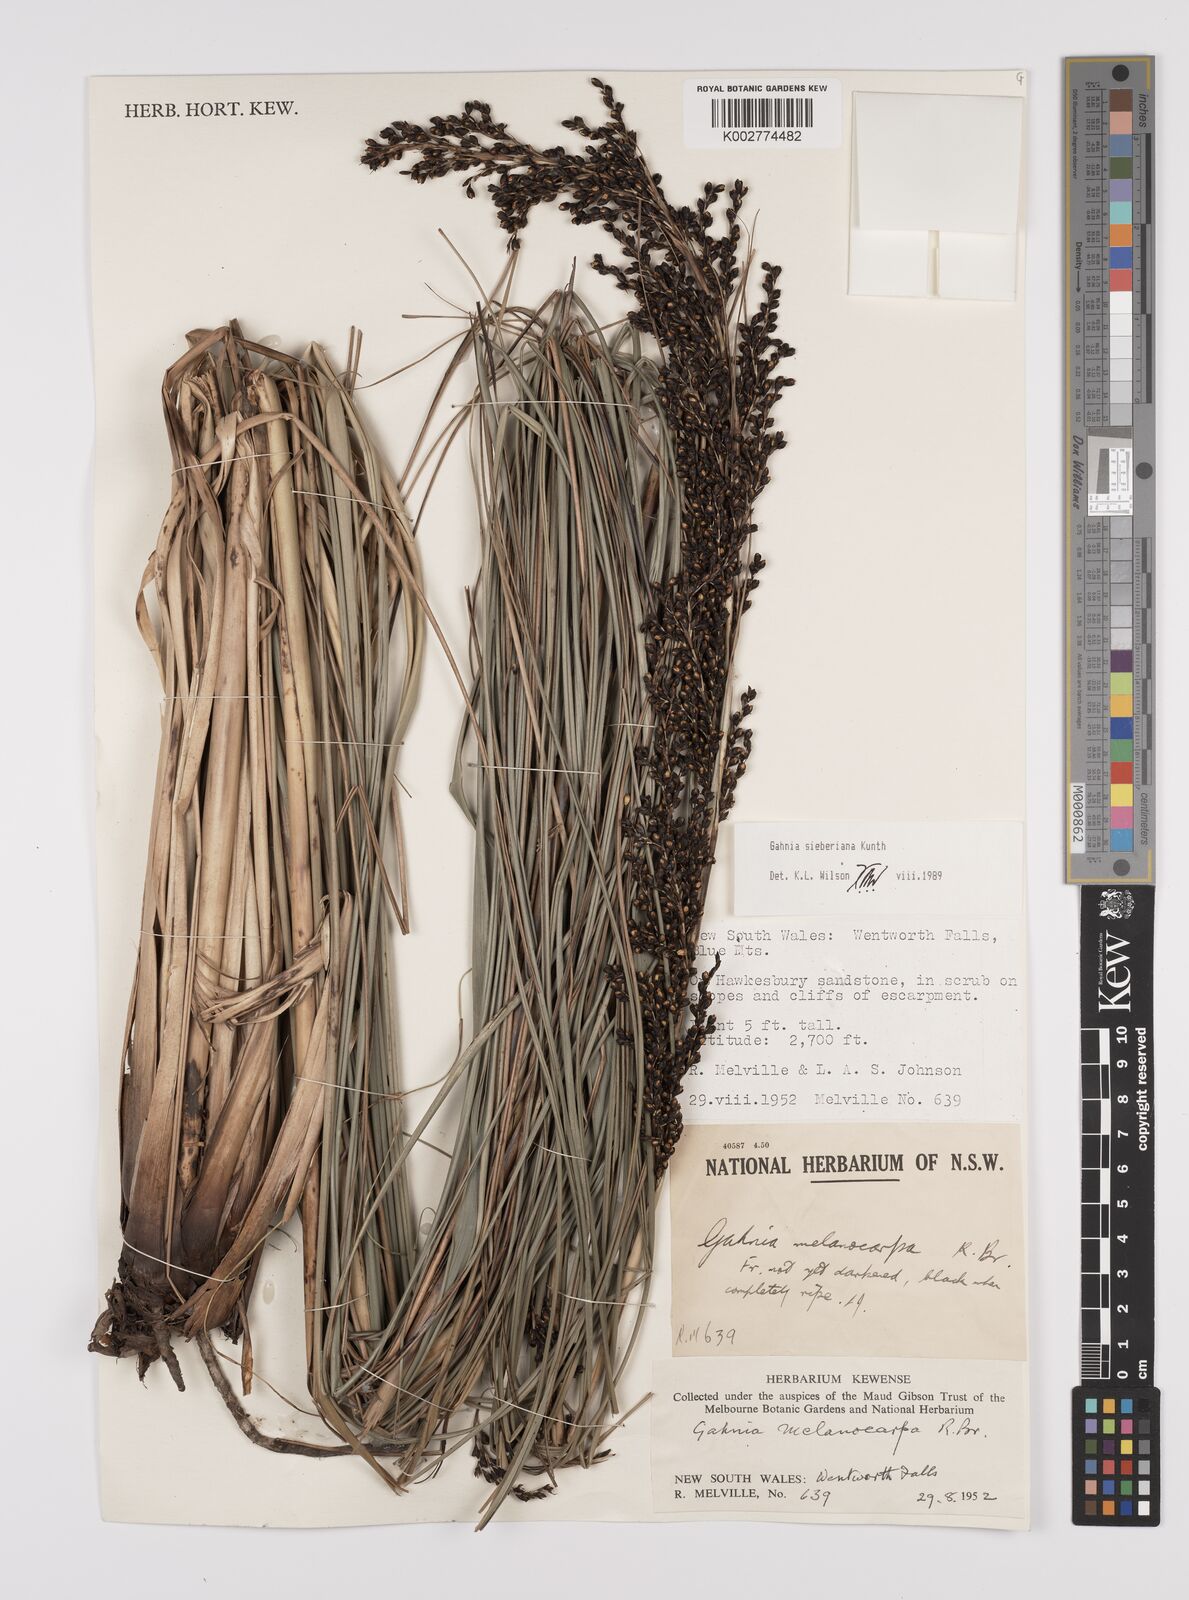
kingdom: Plantae
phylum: Tracheophyta
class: Liliopsida
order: Poales
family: Cyperaceae
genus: Gahnia
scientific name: Gahnia sieberiana
